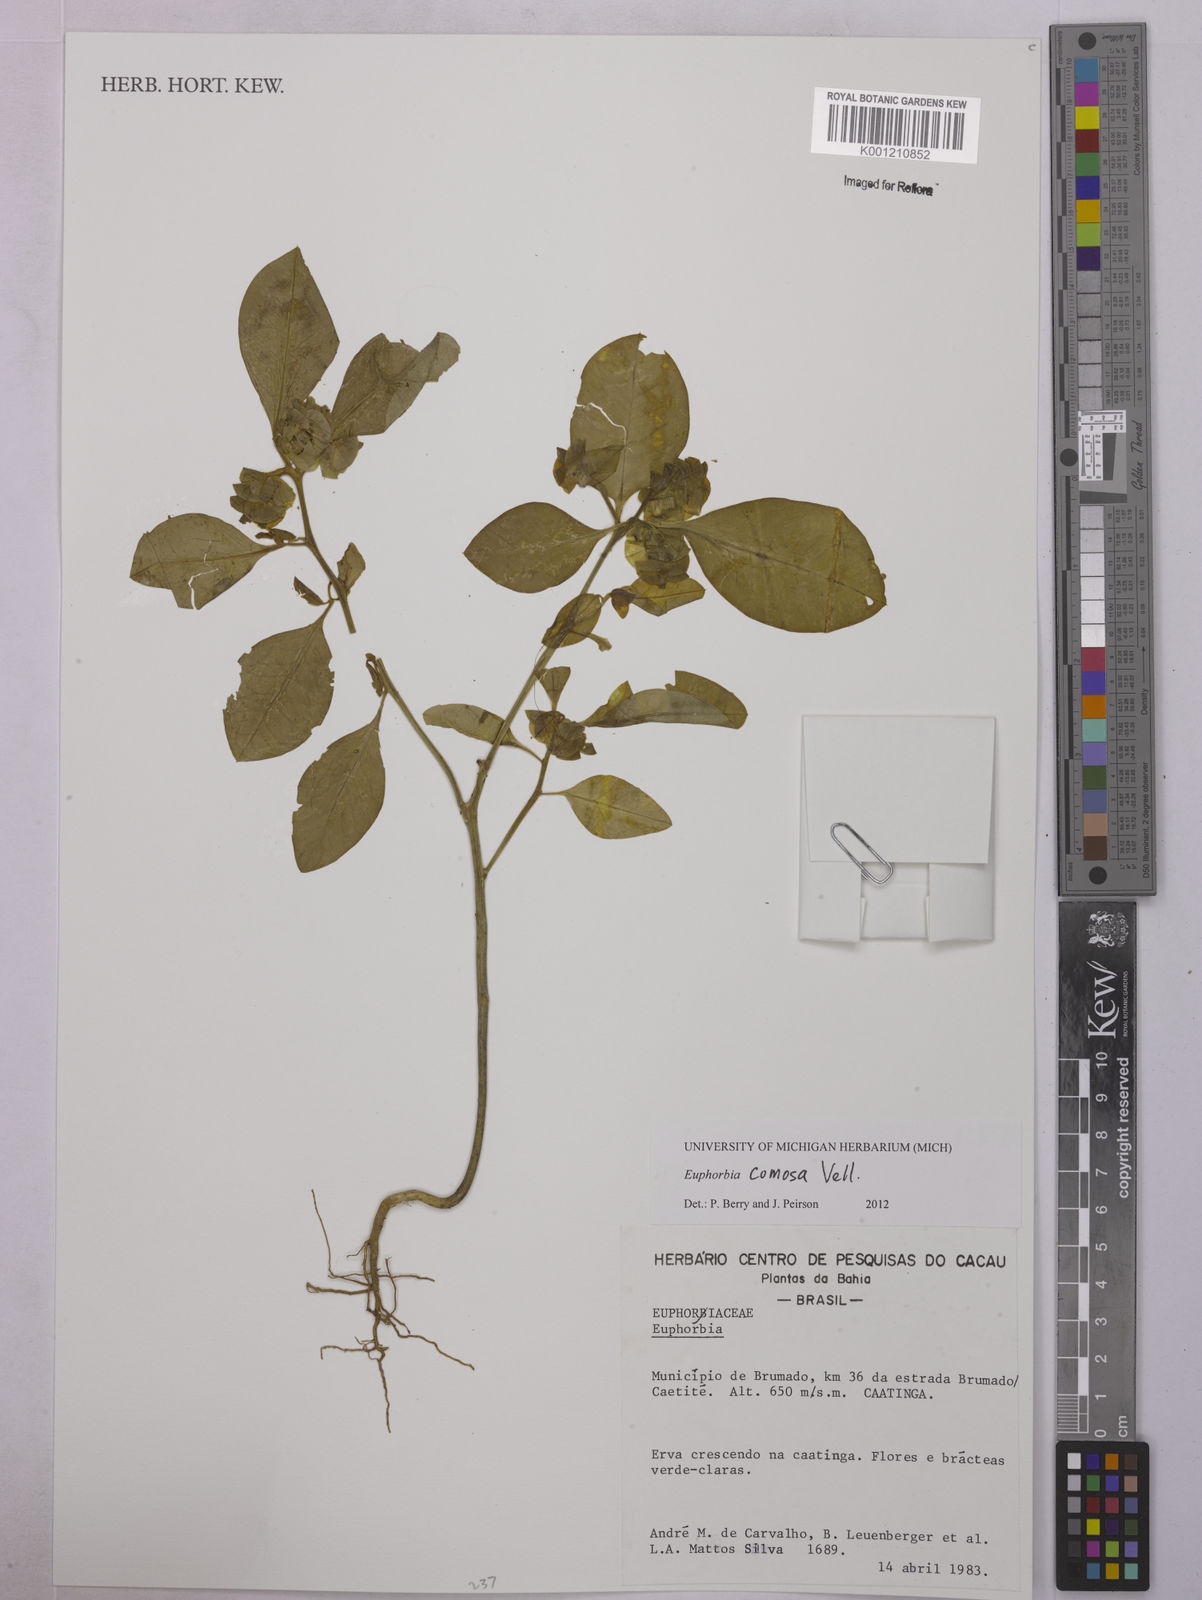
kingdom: Plantae
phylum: Tracheophyta
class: Magnoliopsida
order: Malpighiales
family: Euphorbiaceae
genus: Euphorbia
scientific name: Euphorbia comosa
